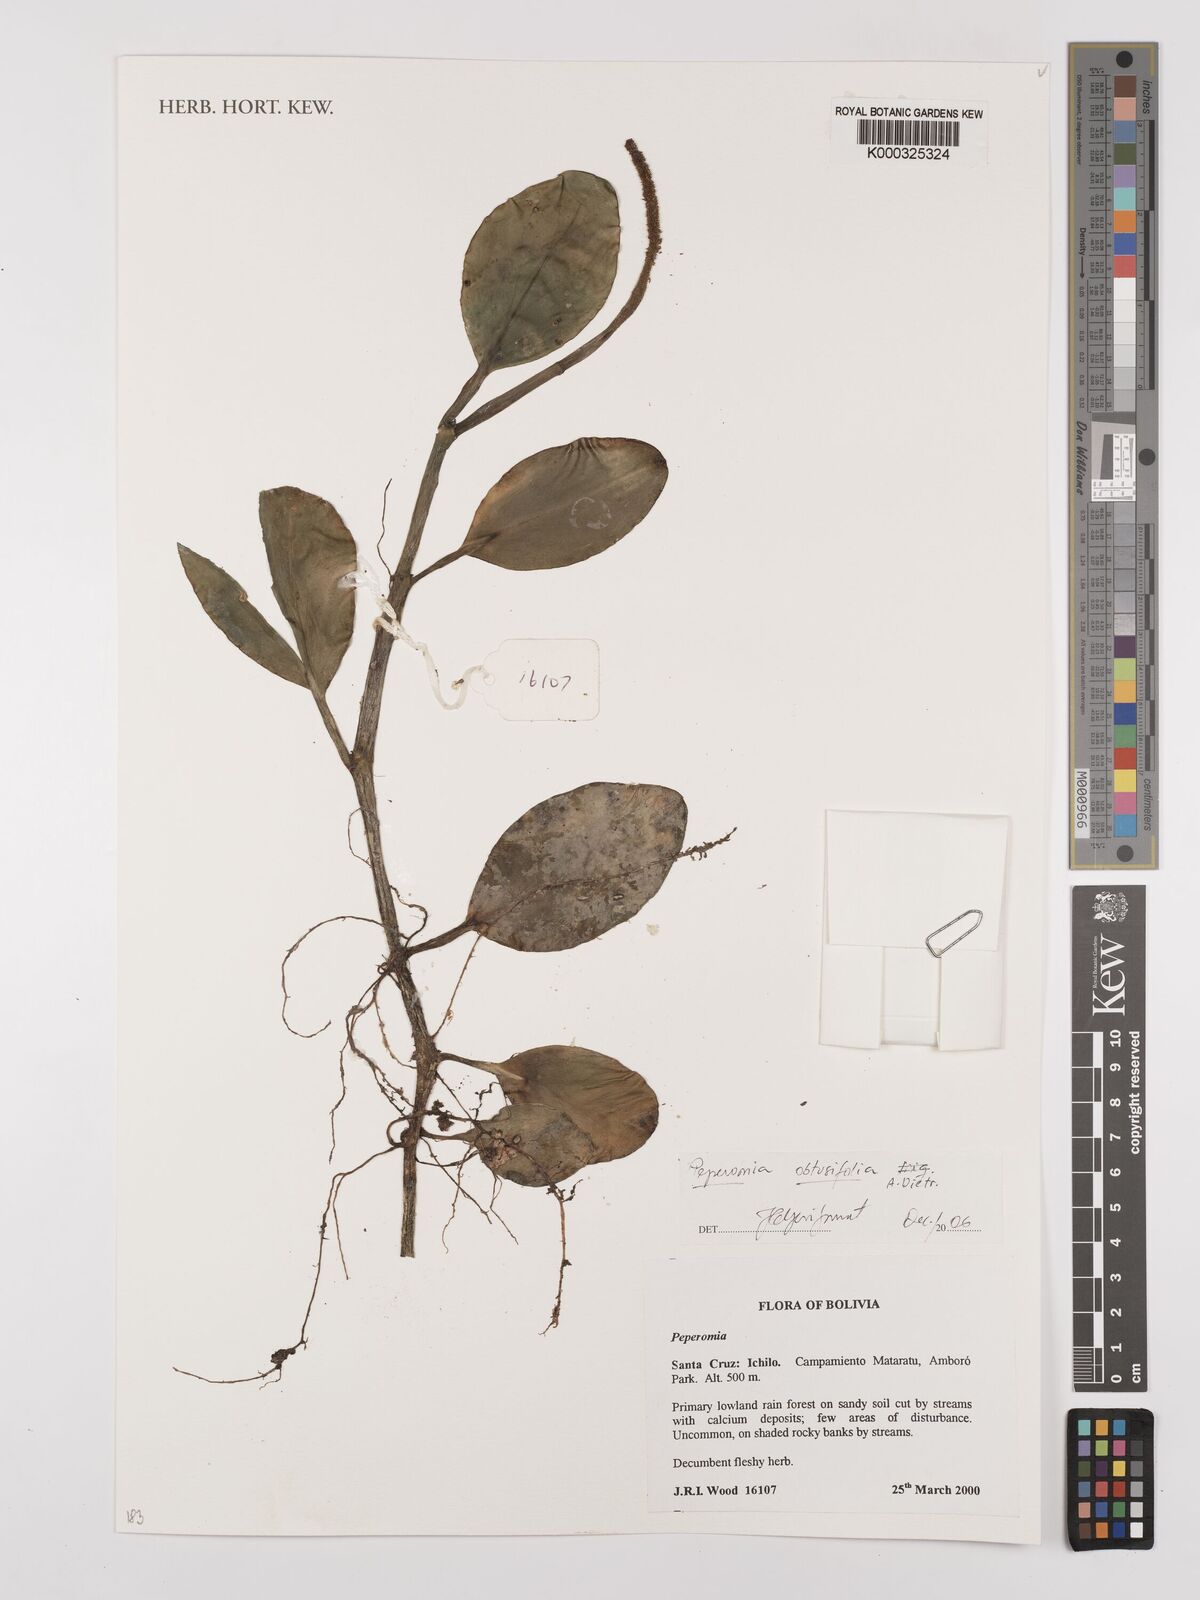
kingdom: Plantae
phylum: Tracheophyta
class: Magnoliopsida
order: Piperales
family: Piperaceae
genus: Peperomia
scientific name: Peperomia obtusifolia
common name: Baby rubberplant
